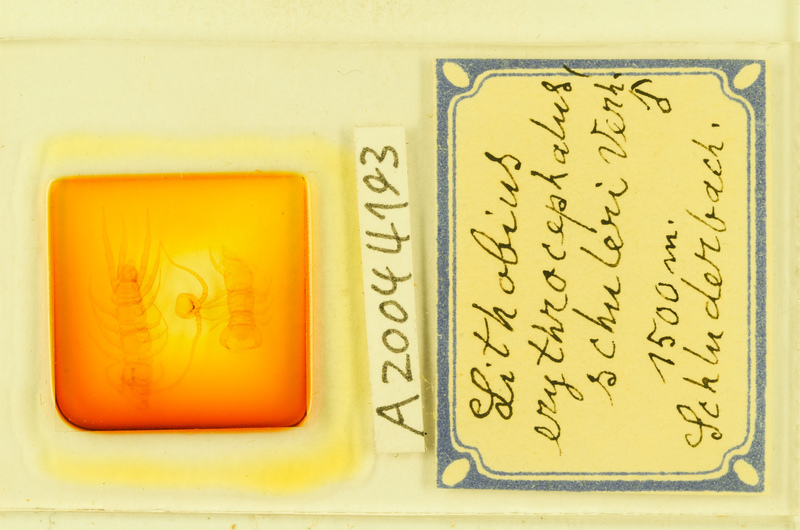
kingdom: Animalia
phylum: Arthropoda
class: Chilopoda
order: Lithobiomorpha
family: Lithobiidae
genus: Lithobius
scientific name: Lithobius erythrocephalus
